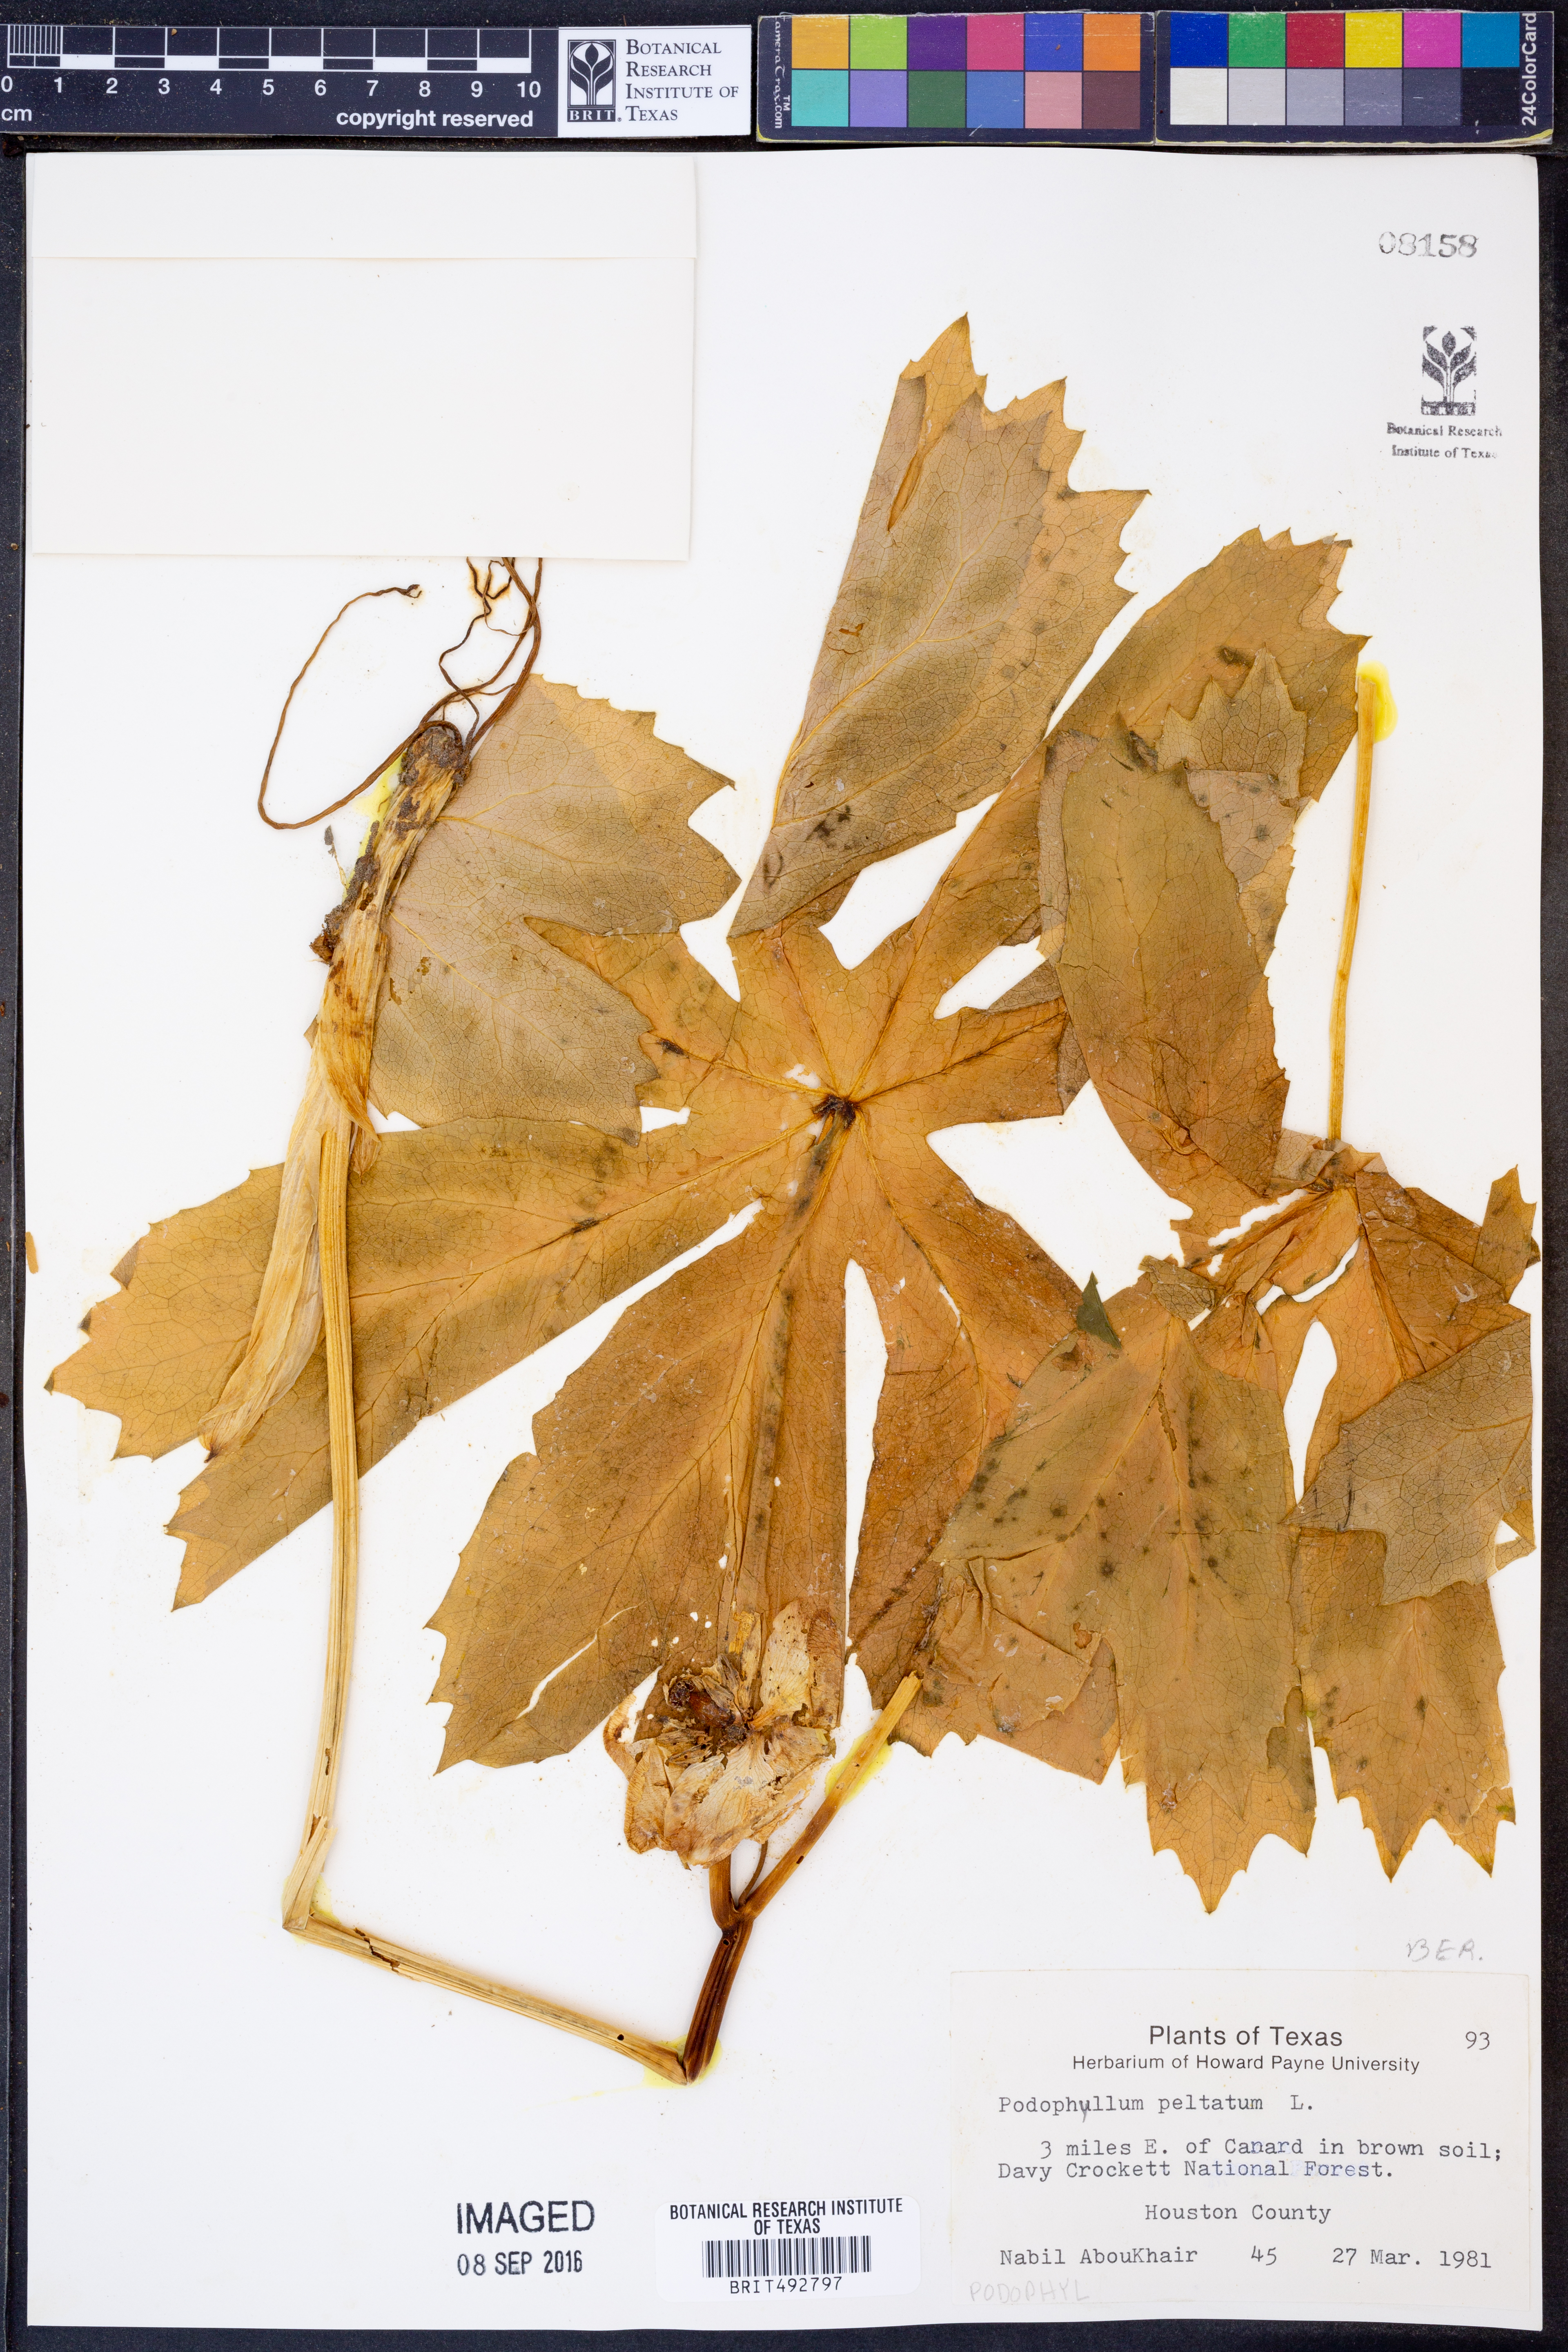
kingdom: Plantae
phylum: Tracheophyta
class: Magnoliopsida
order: Ranunculales
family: Berberidaceae
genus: Podophyllum
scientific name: Podophyllum peltatum
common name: Wild mandrake
